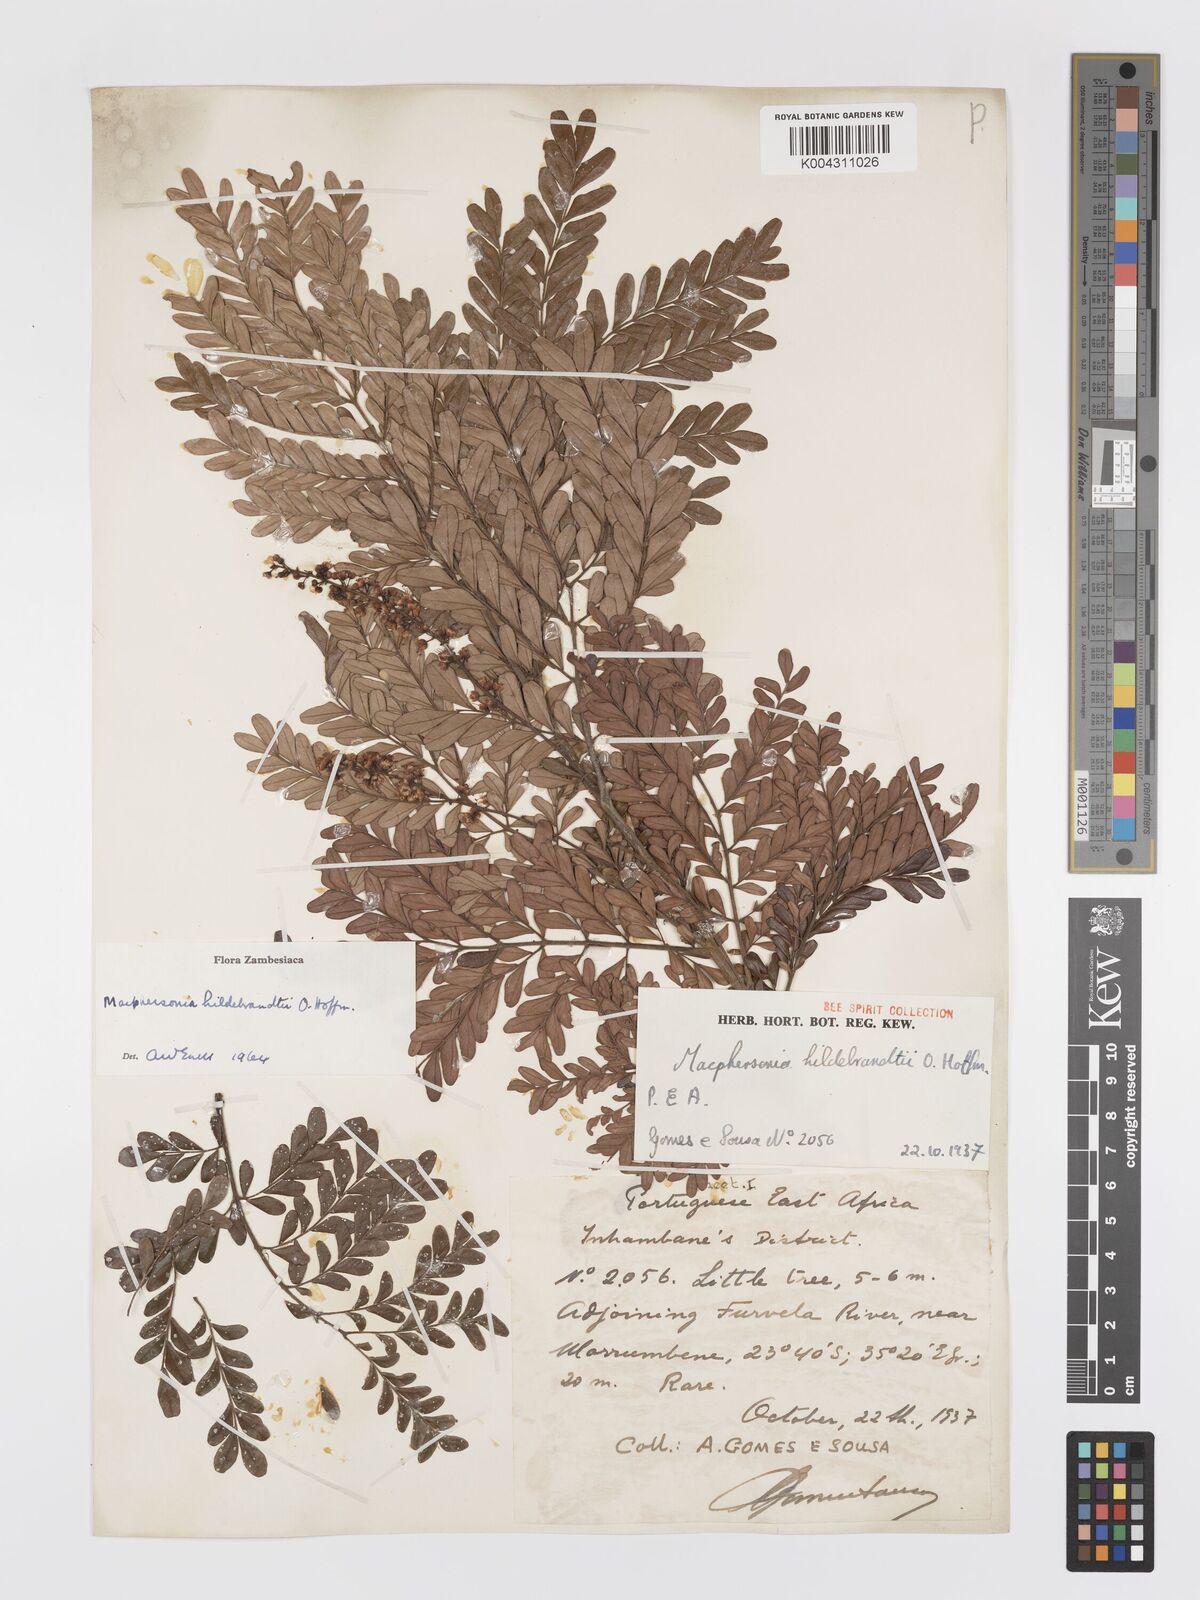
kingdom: Plantae
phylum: Tracheophyta
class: Magnoliopsida
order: Sapindales
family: Sapindaceae
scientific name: Sapindaceae
